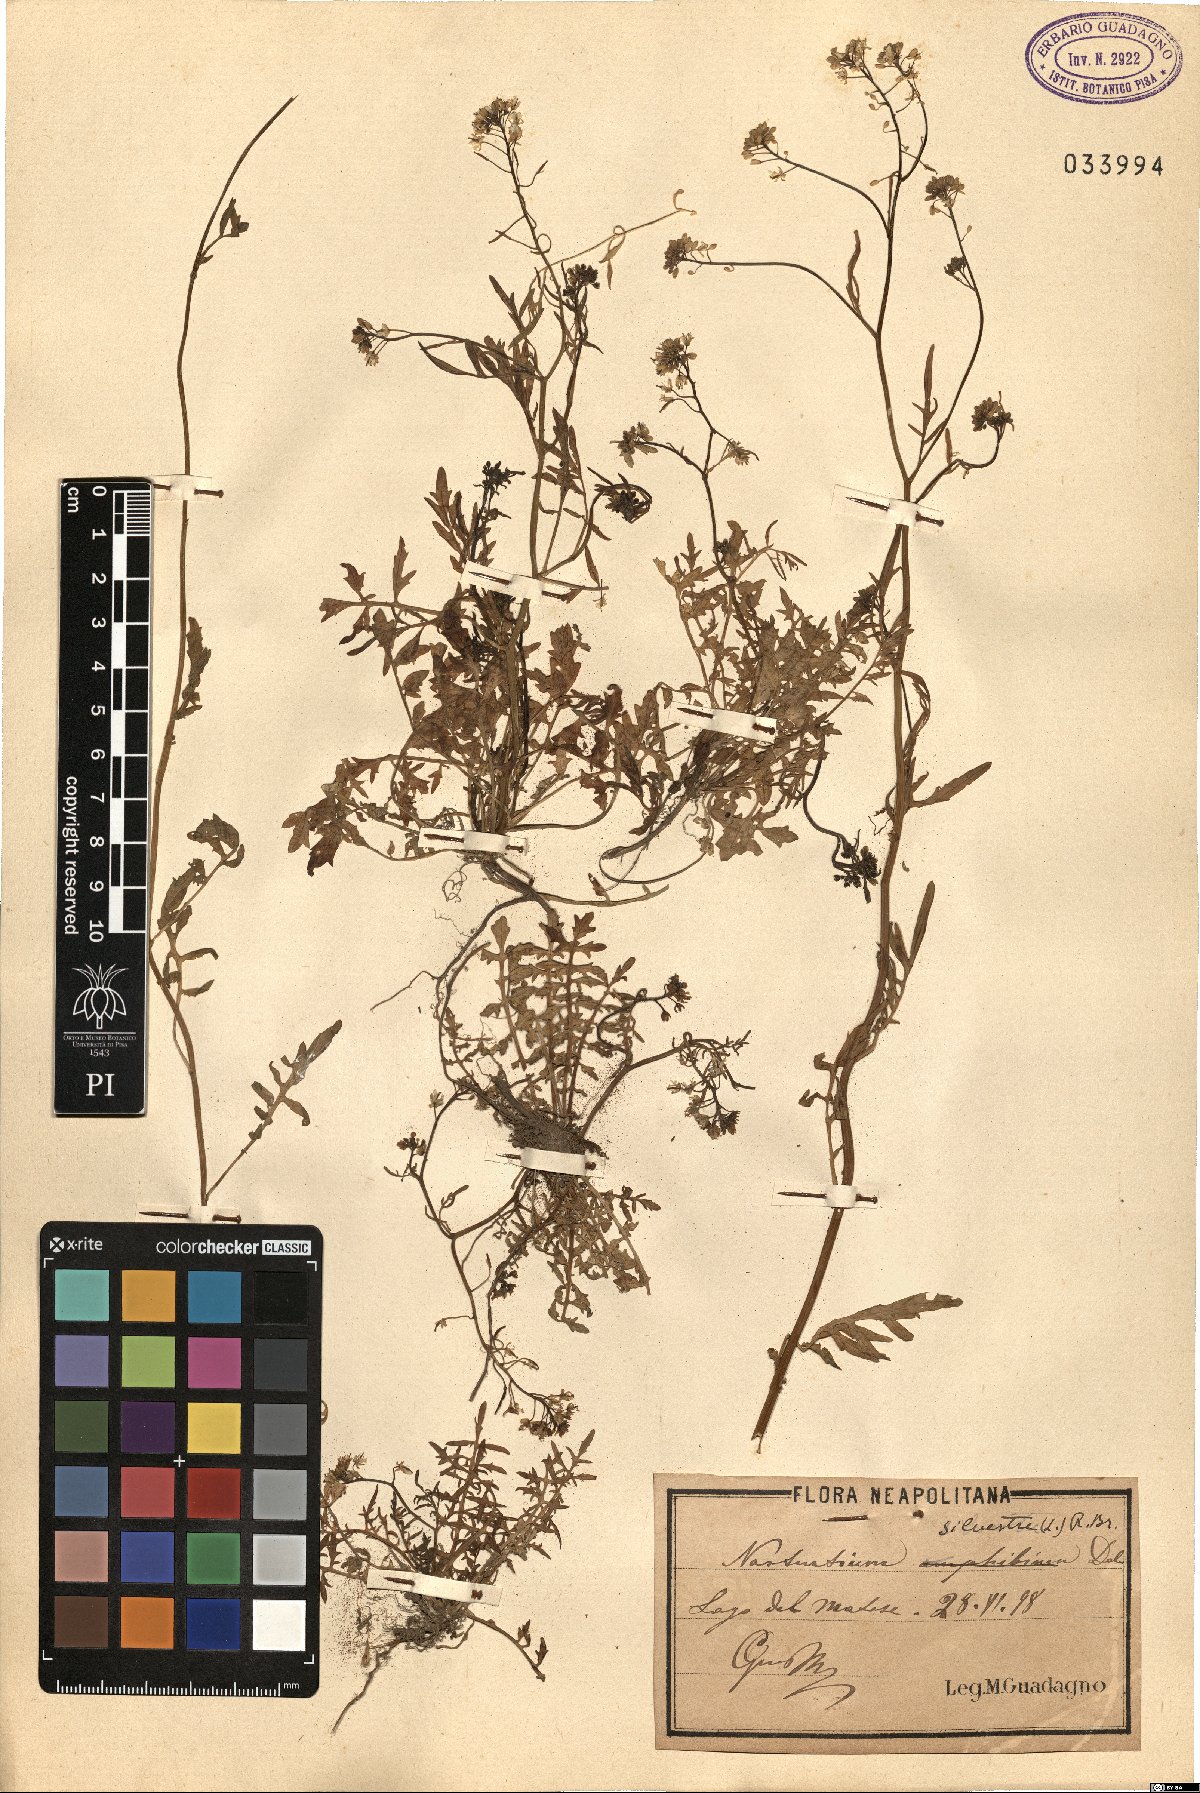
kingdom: Plantae
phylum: Tracheophyta
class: Magnoliopsida
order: Brassicales
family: Brassicaceae
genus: Rorippa
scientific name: Rorippa sylvestris
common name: Creeping yellowcress
